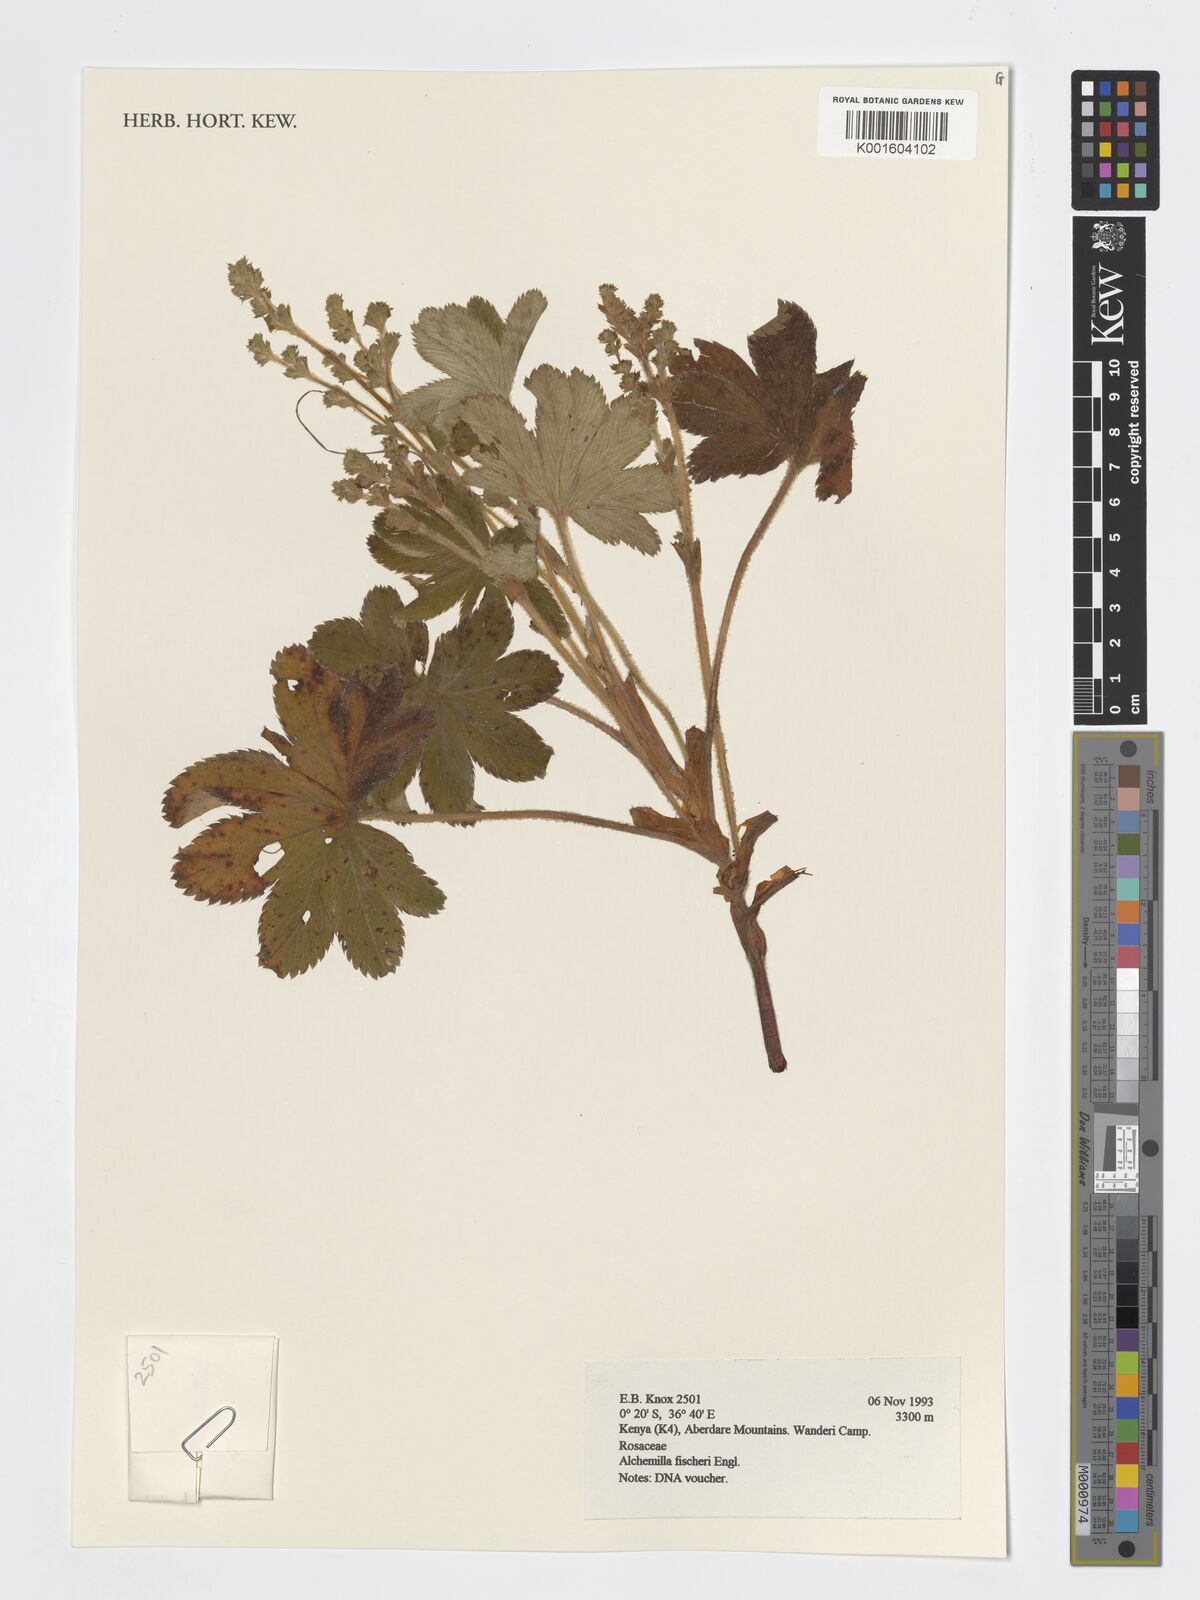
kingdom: Plantae
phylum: Tracheophyta
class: Magnoliopsida
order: Rosales
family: Rosaceae
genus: Alchemilla
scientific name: Alchemilla fischeri
